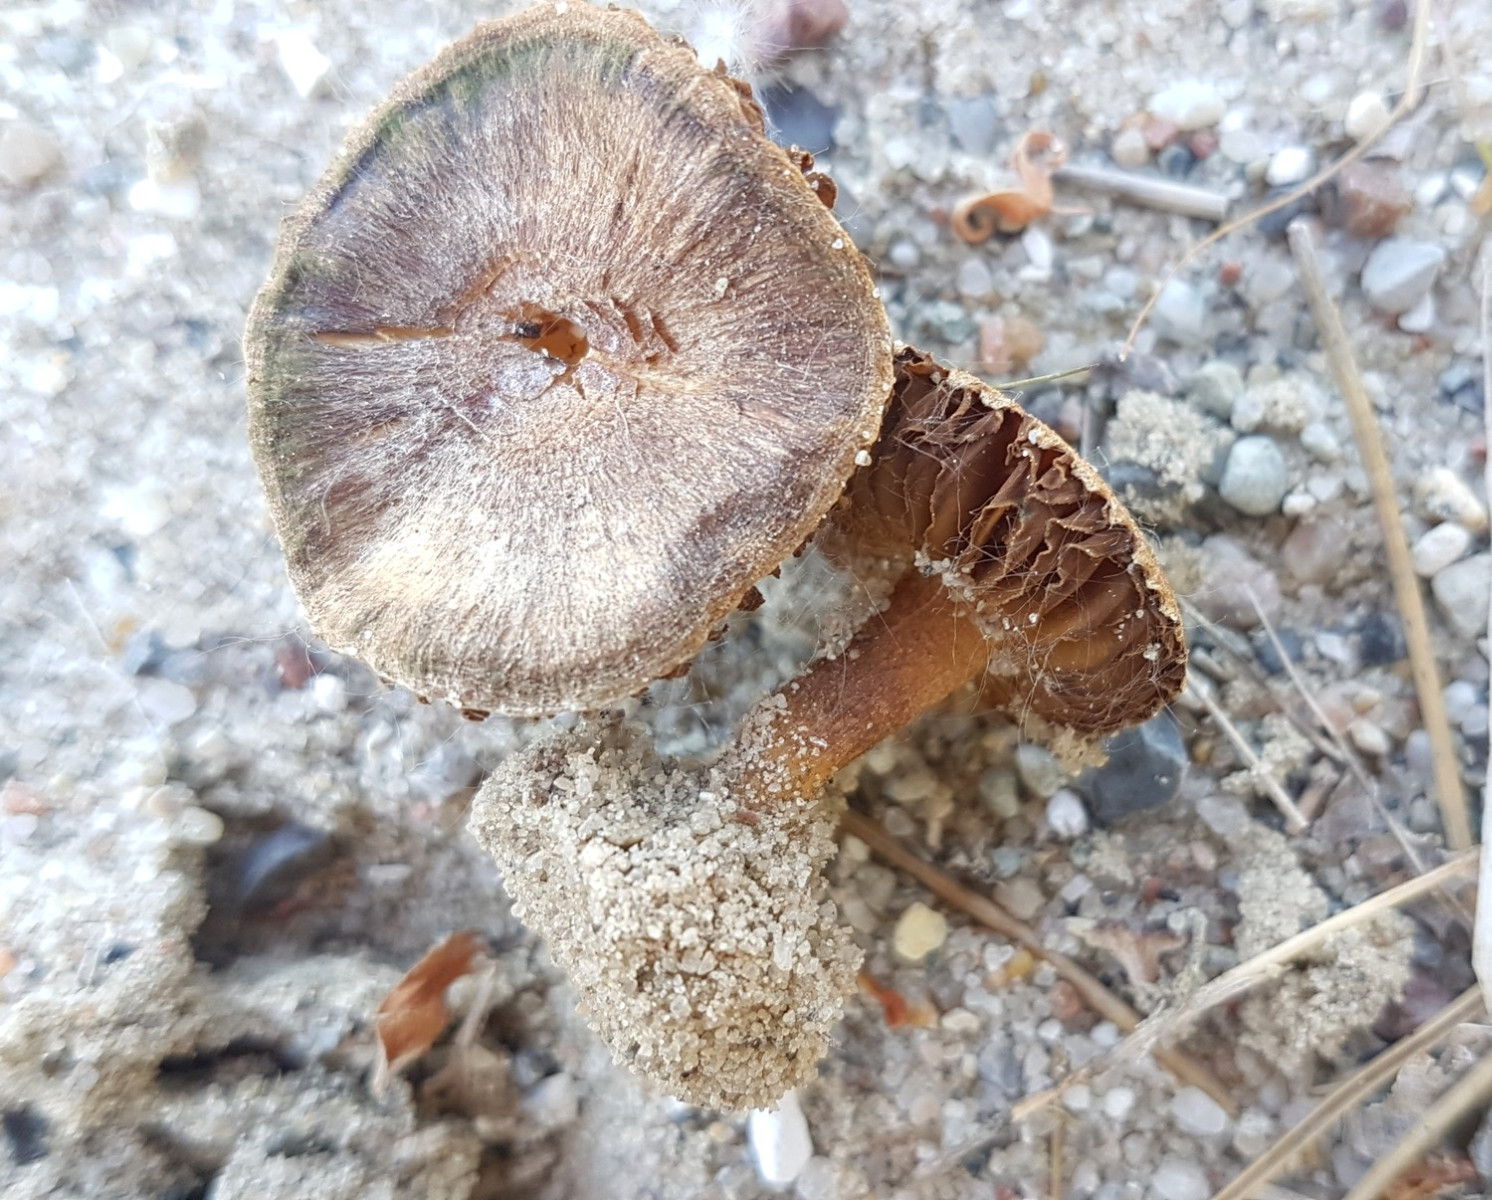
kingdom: Fungi
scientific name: Fungi
